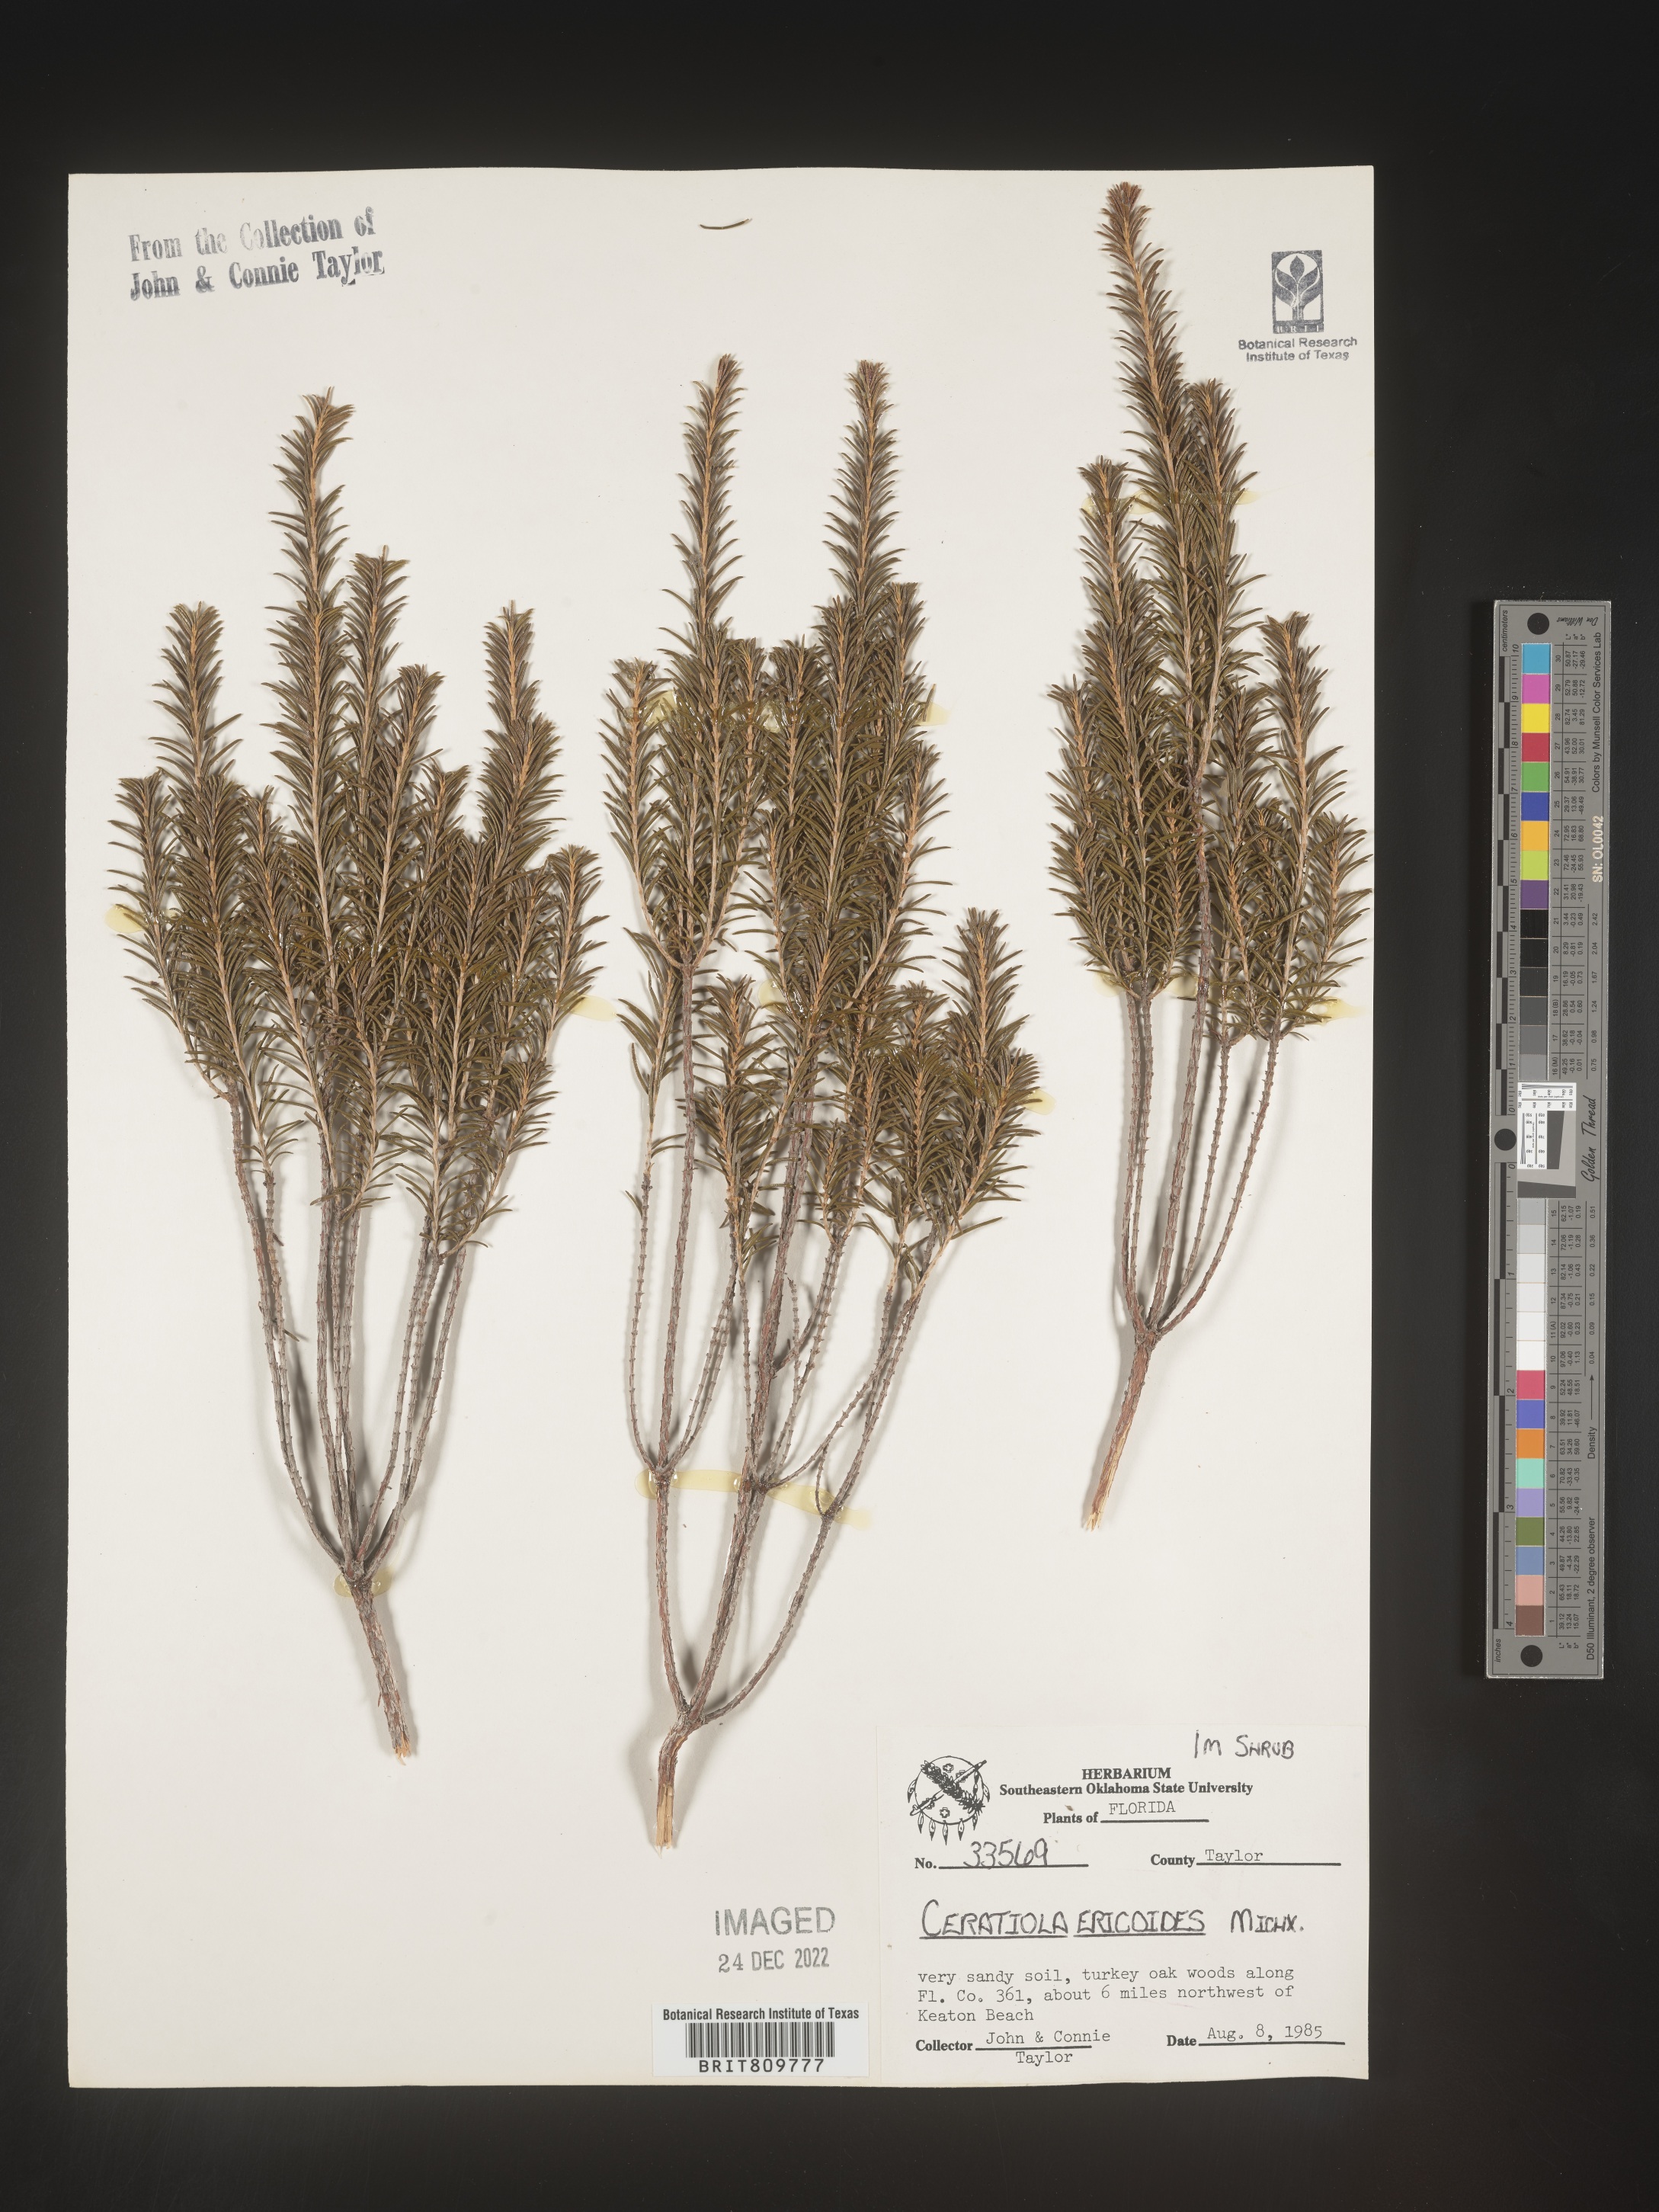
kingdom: Plantae
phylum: Tracheophyta
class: Magnoliopsida
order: Ericales
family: Ericaceae
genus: Ceratiola
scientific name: Ceratiola ericoides
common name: Sandhill-rosemary
